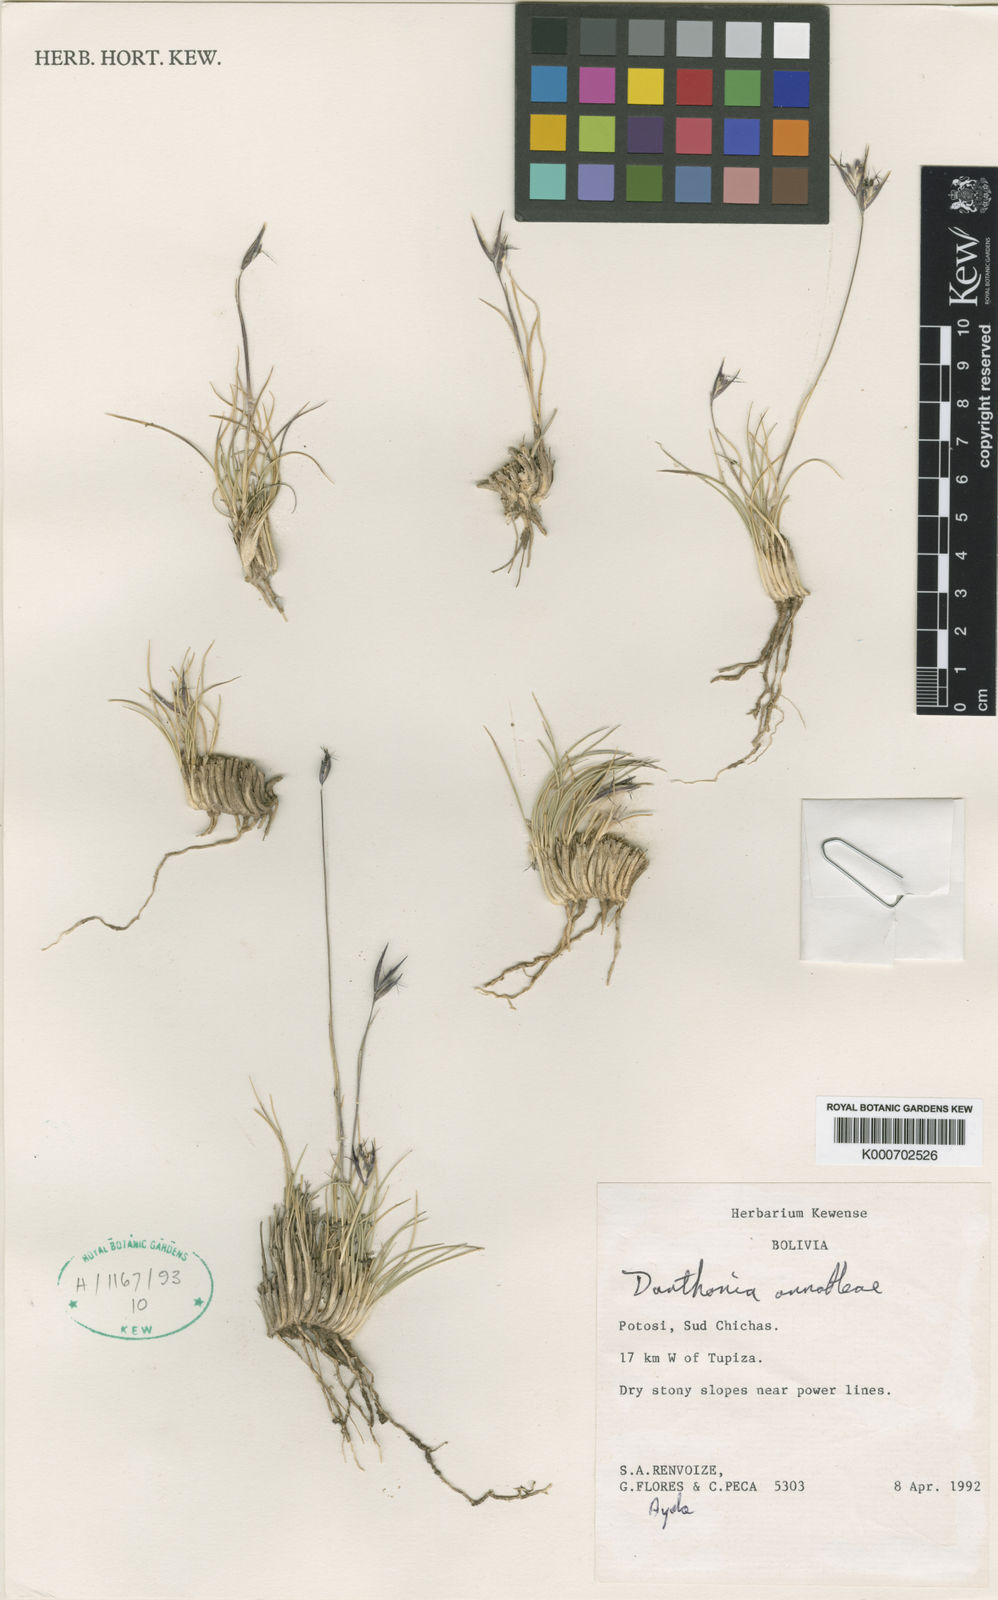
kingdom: Plantae
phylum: Tracheophyta
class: Liliopsida
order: Poales
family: Poaceae
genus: Danthonia
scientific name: Danthonia
